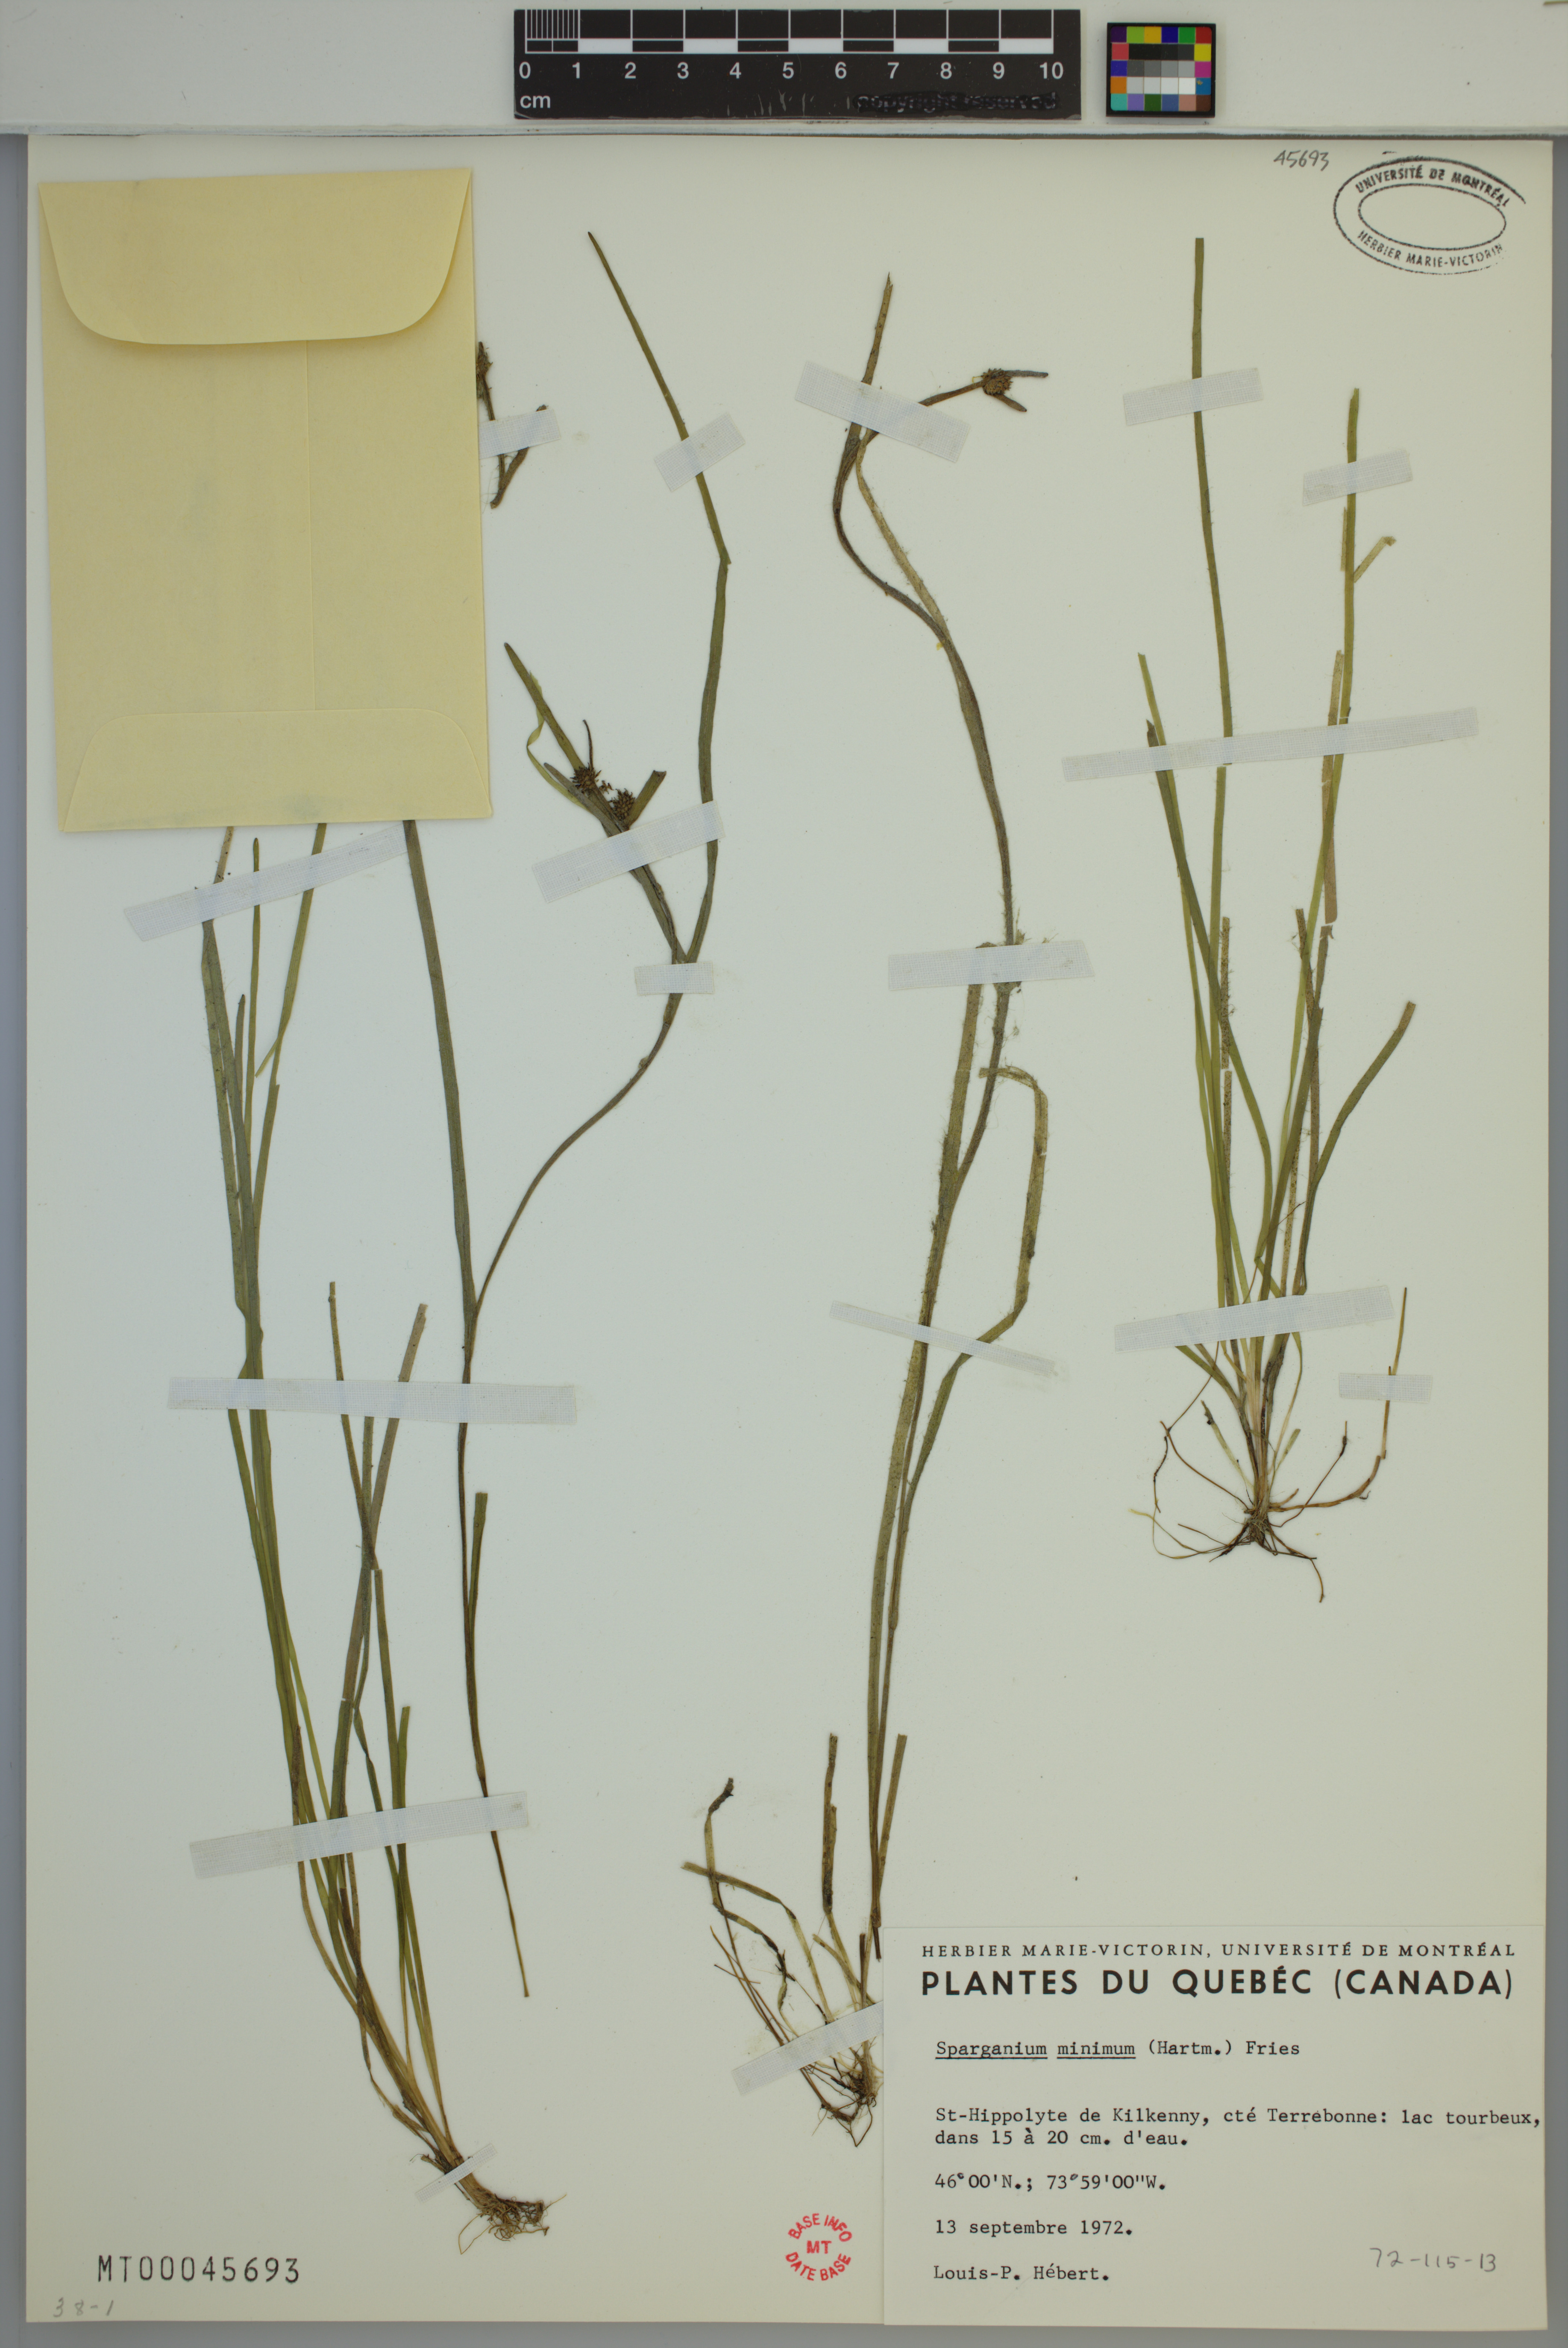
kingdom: Plantae
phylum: Tracheophyta
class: Liliopsida
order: Poales
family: Typhaceae
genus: Sparganium
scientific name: Sparganium natans
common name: Least bur-reed
